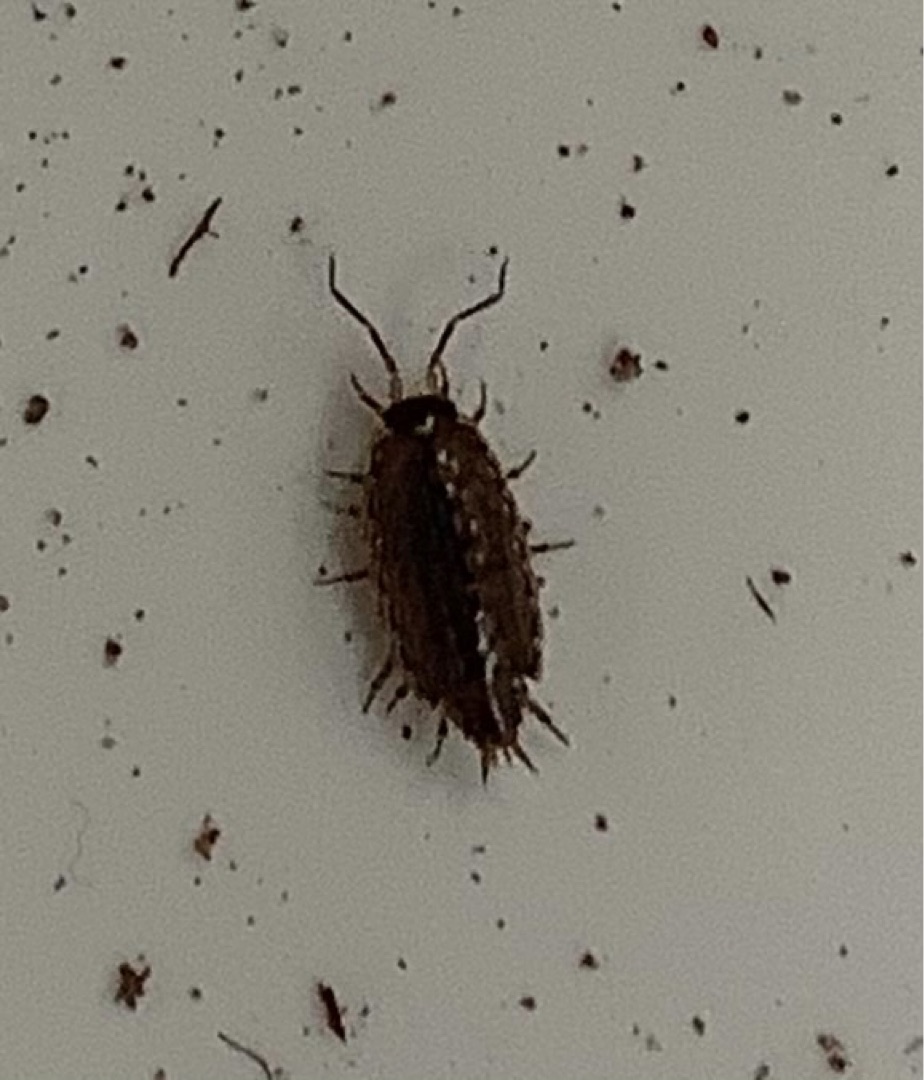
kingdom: Animalia
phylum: Arthropoda
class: Malacostraca
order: Isopoda
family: Philosciidae
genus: Philoscia
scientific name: Philoscia muscorum
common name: Langbenet bænkebider
